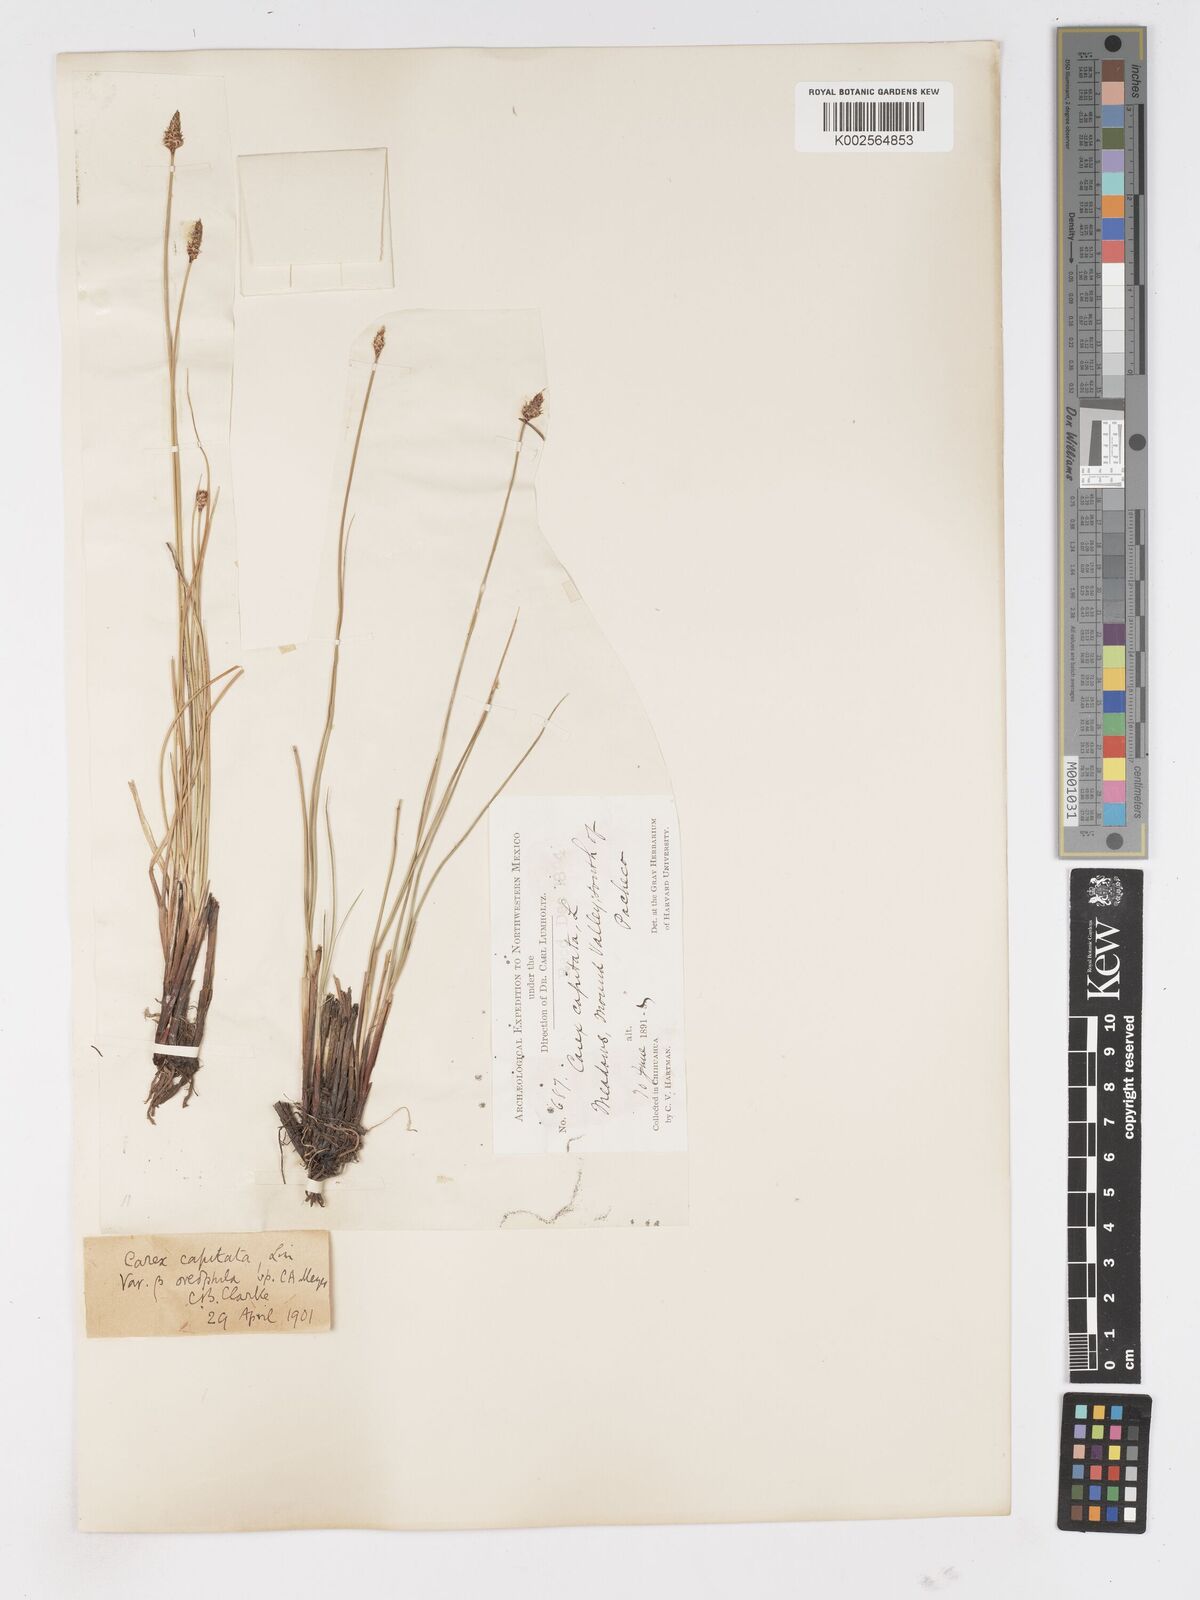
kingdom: Plantae
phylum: Tracheophyta
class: Liliopsida
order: Poales
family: Cyperaceae
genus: Carex
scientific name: Carex capitata
